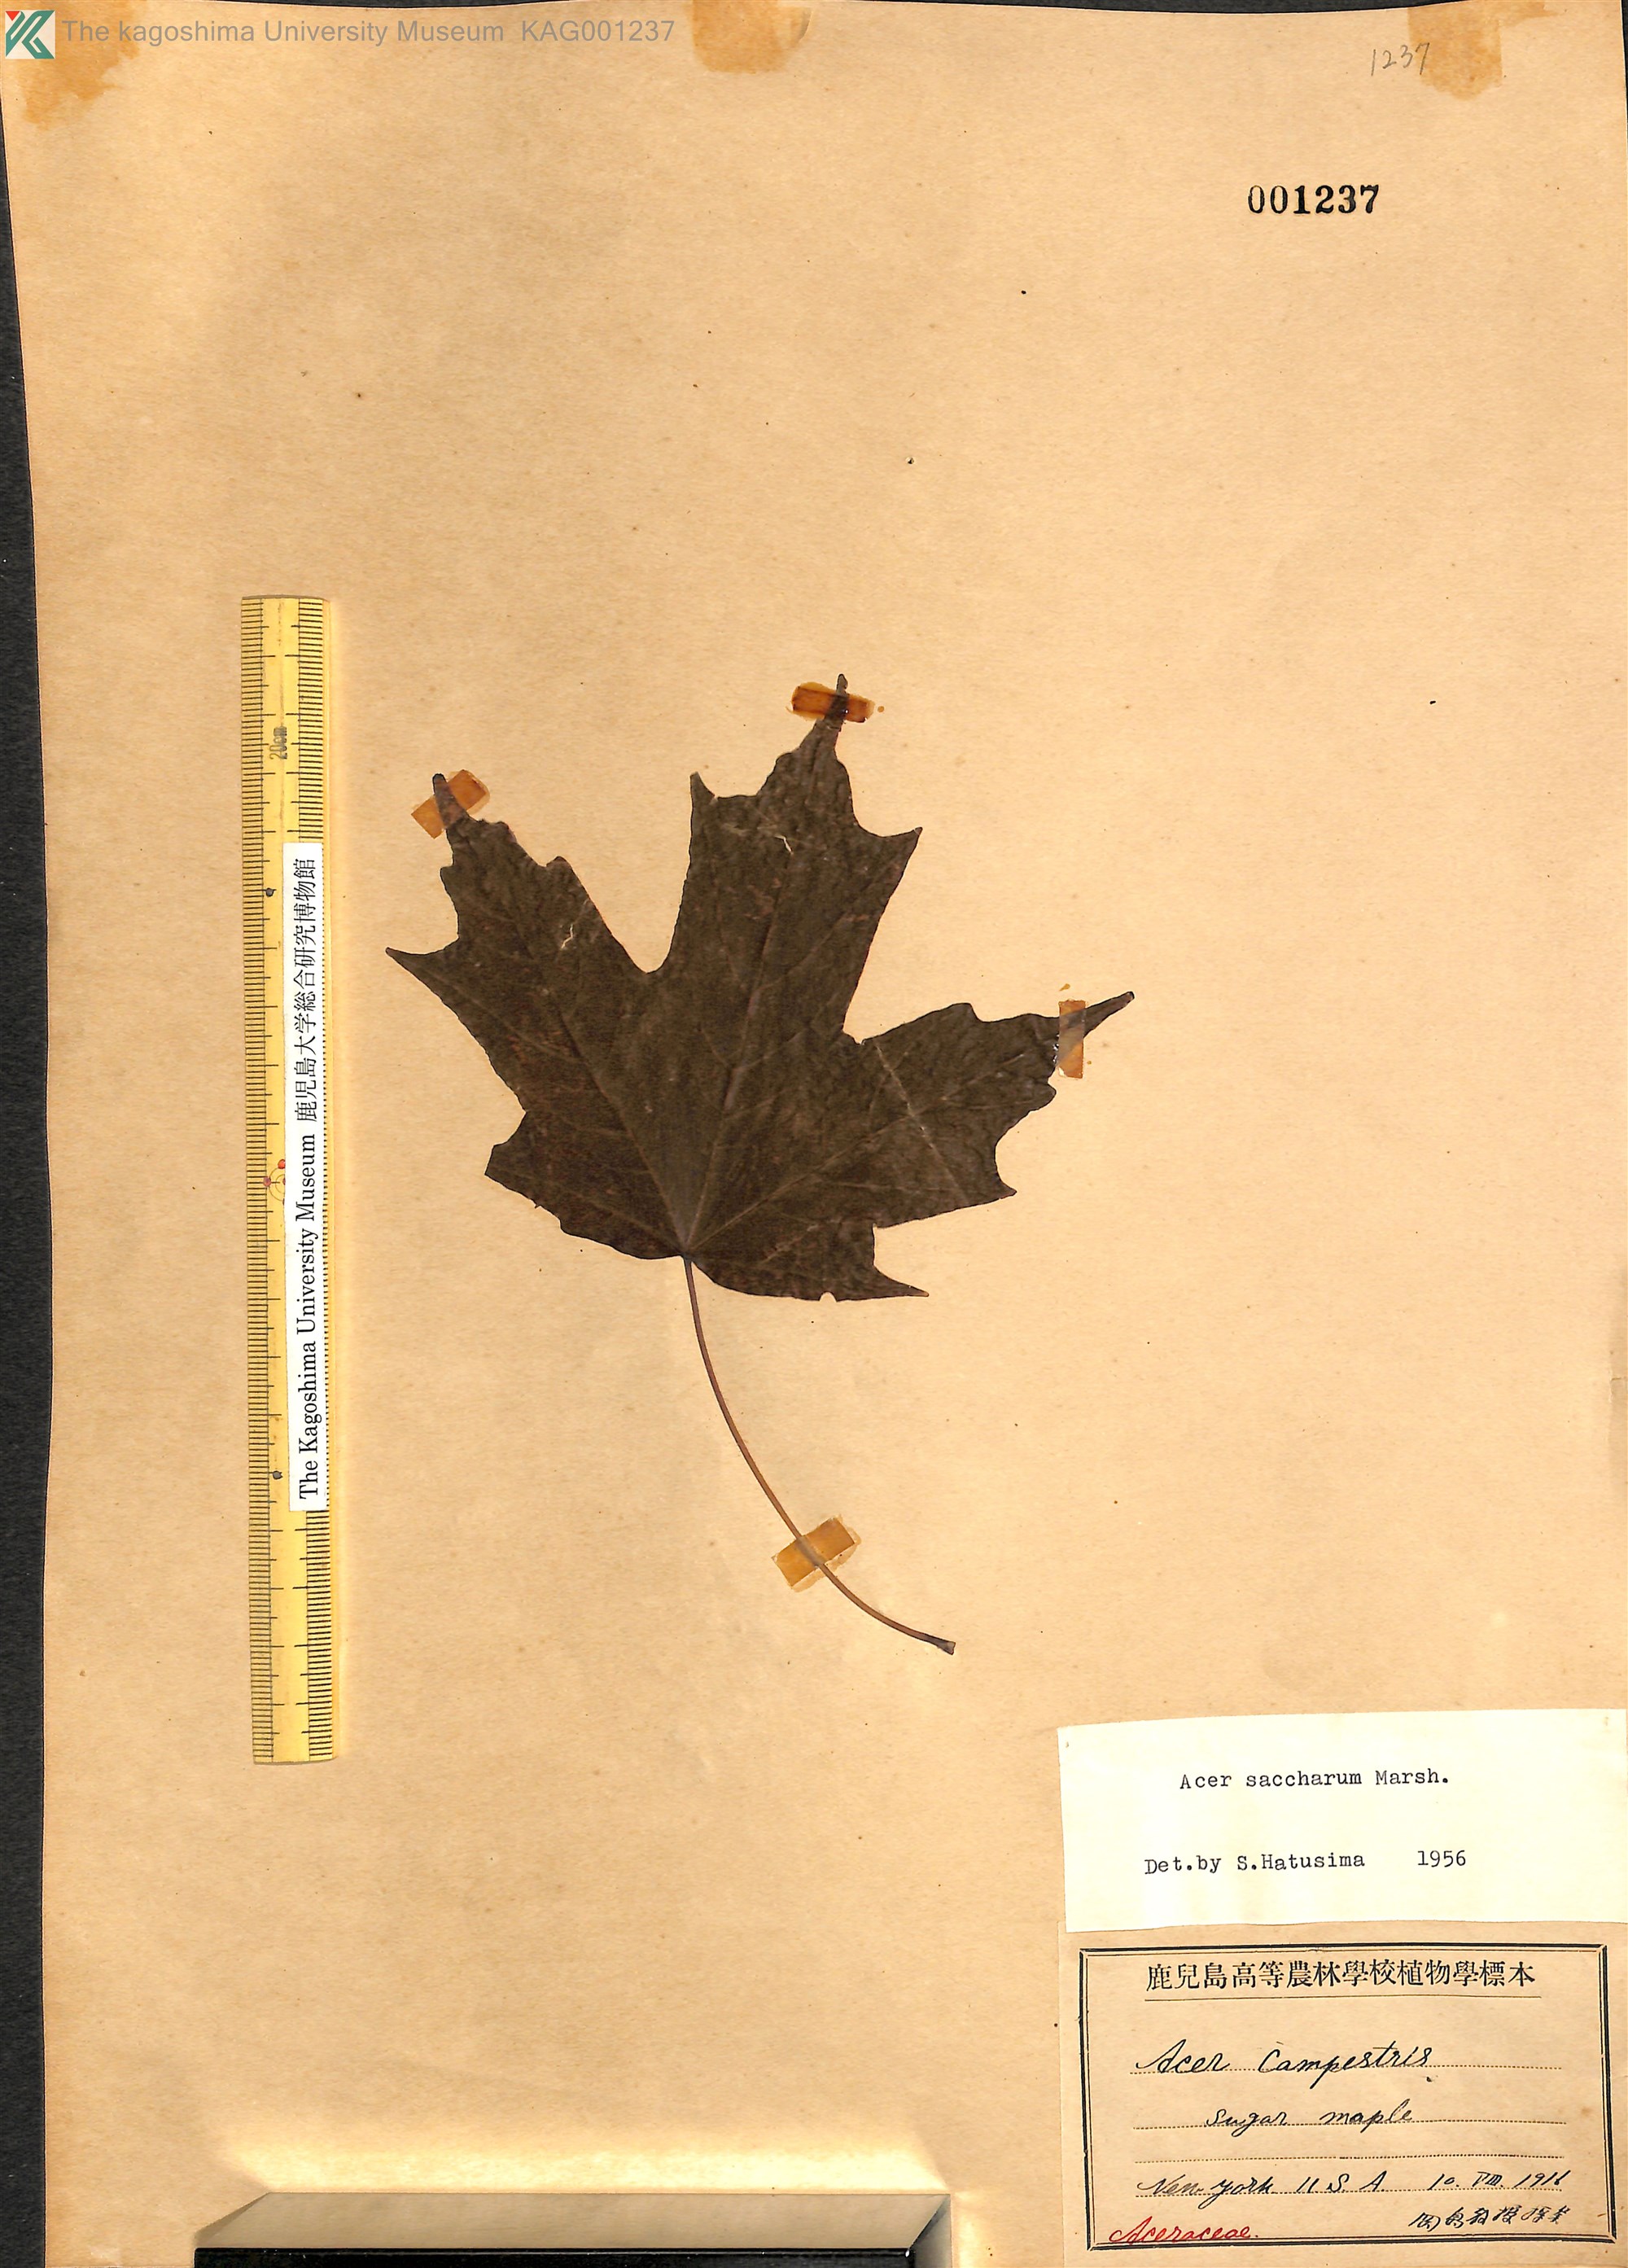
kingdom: Plantae
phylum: Tracheophyta
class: Magnoliopsida
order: Sapindales
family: Sapindaceae
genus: Acer
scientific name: Acer saccharum
